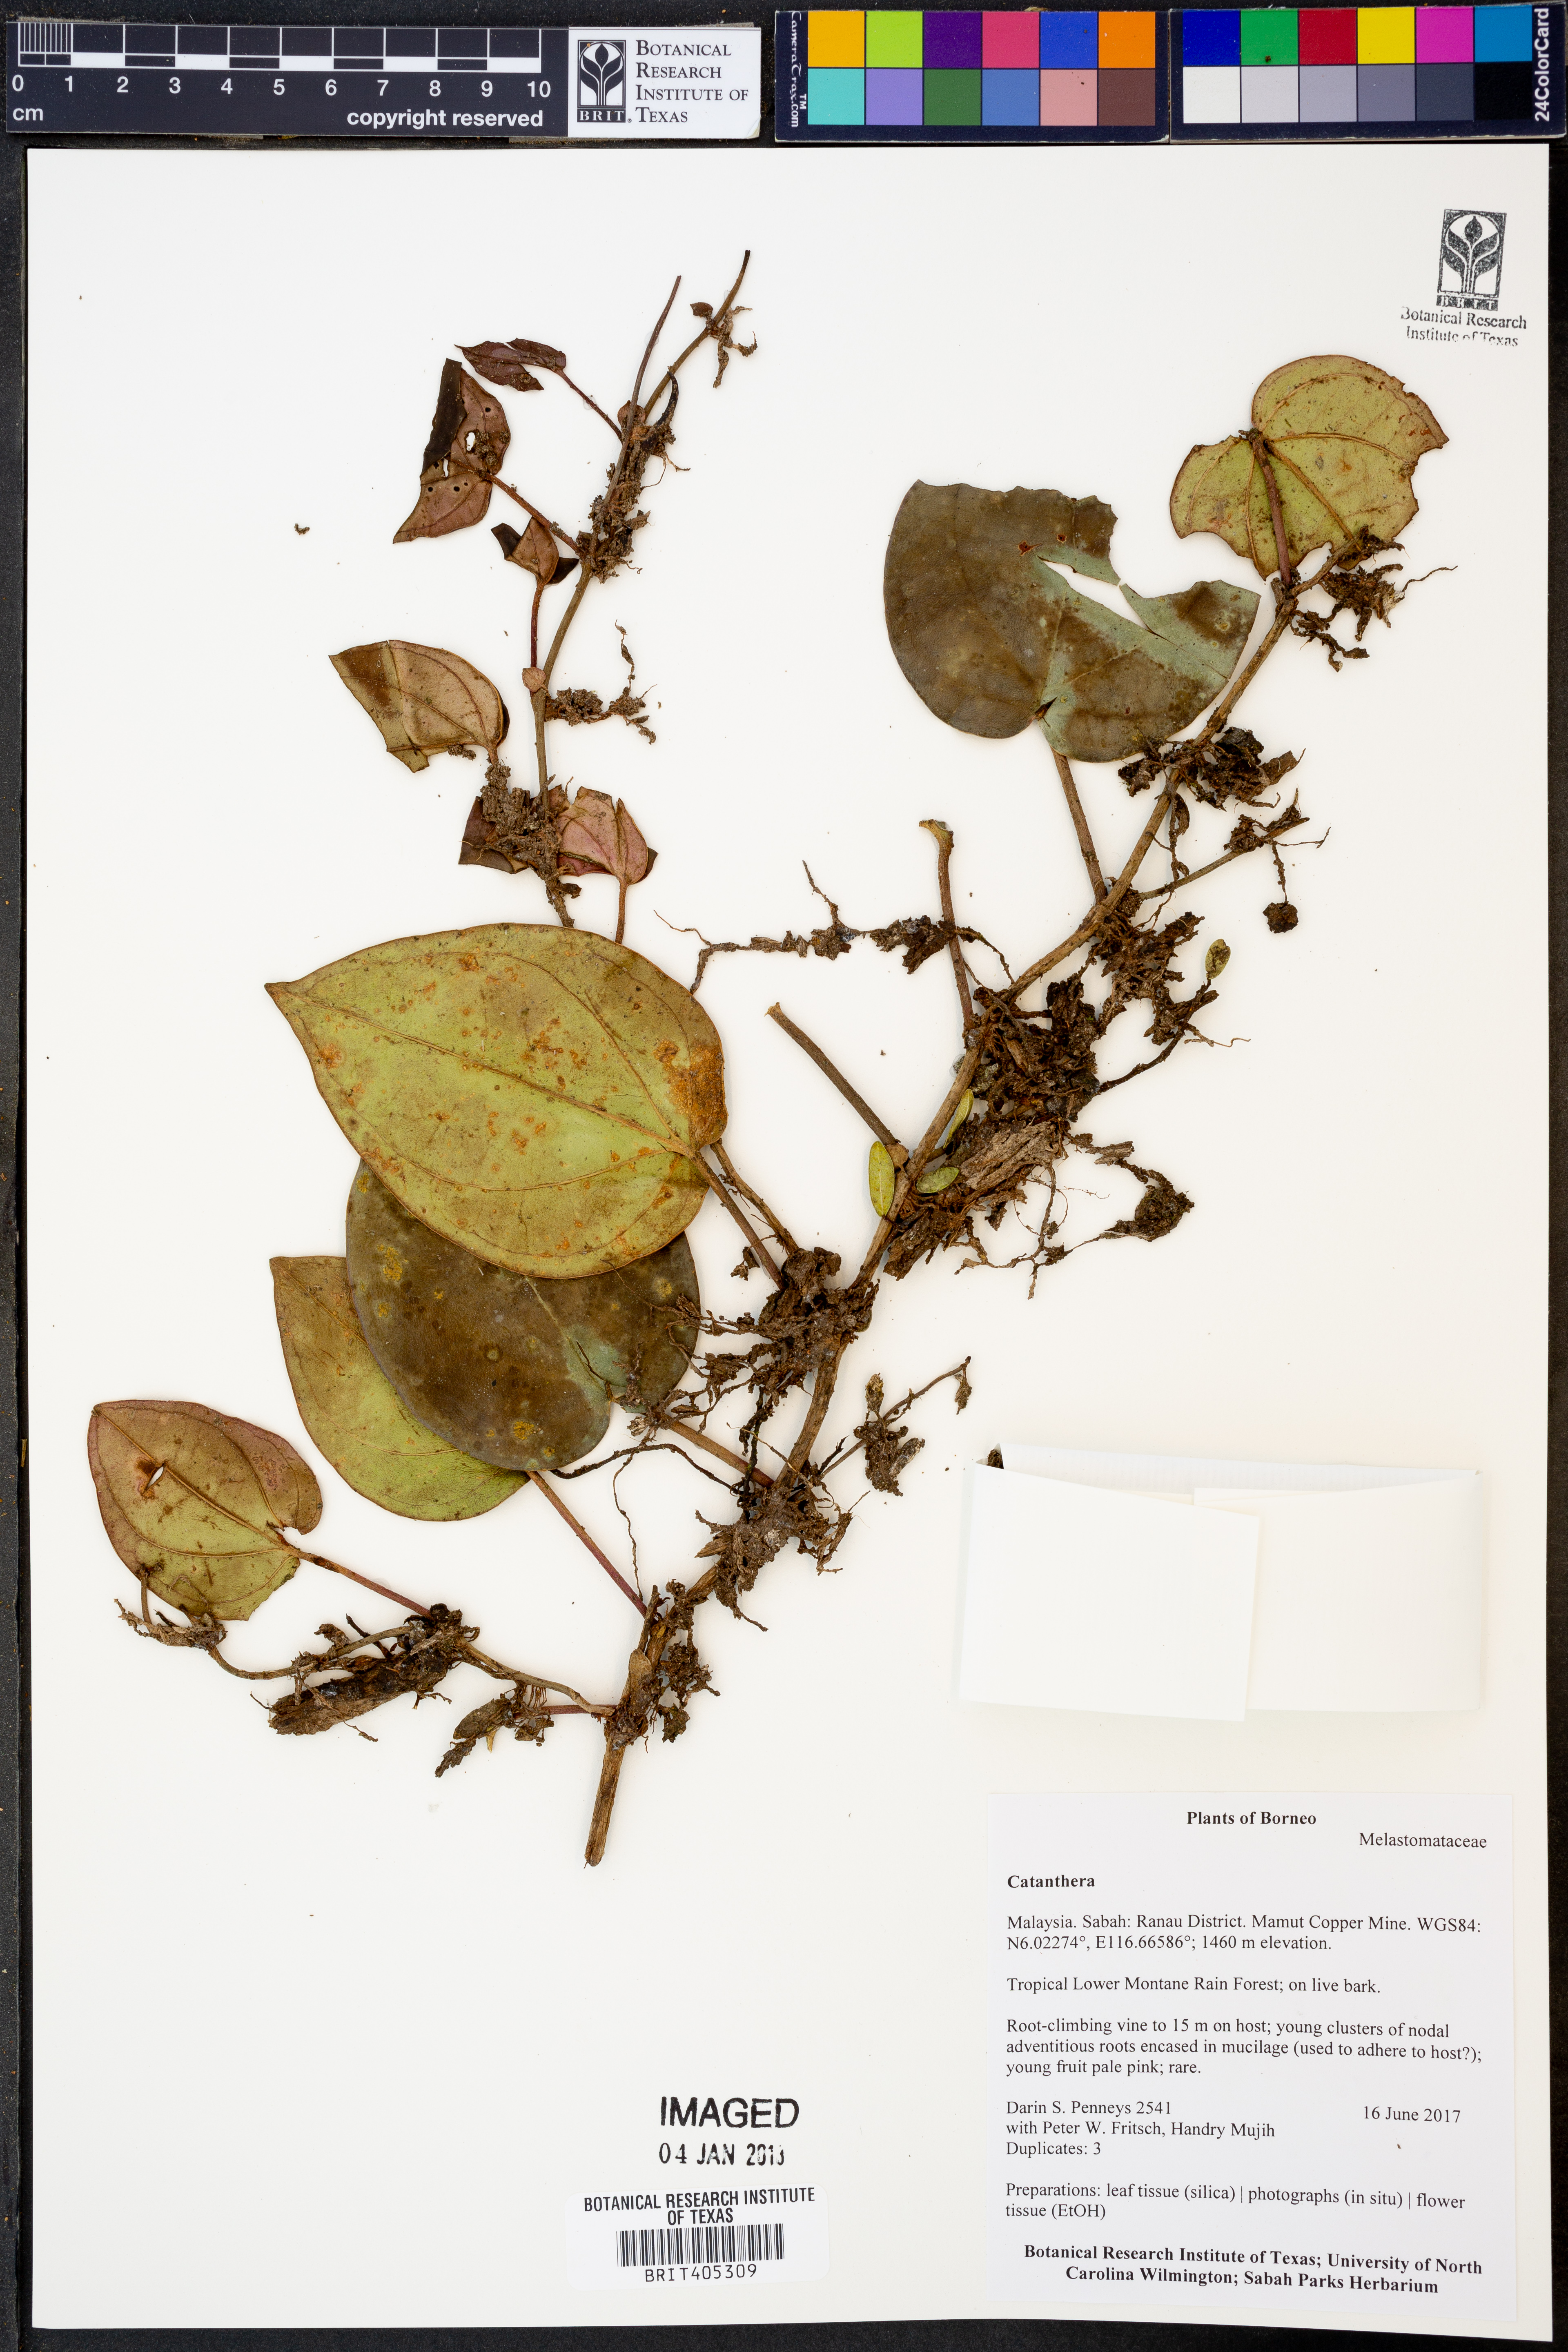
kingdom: Plantae
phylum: Tracheophyta
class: Magnoliopsida
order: Myrtales
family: Melastomataceae
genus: Catanthera
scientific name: Catanthera
